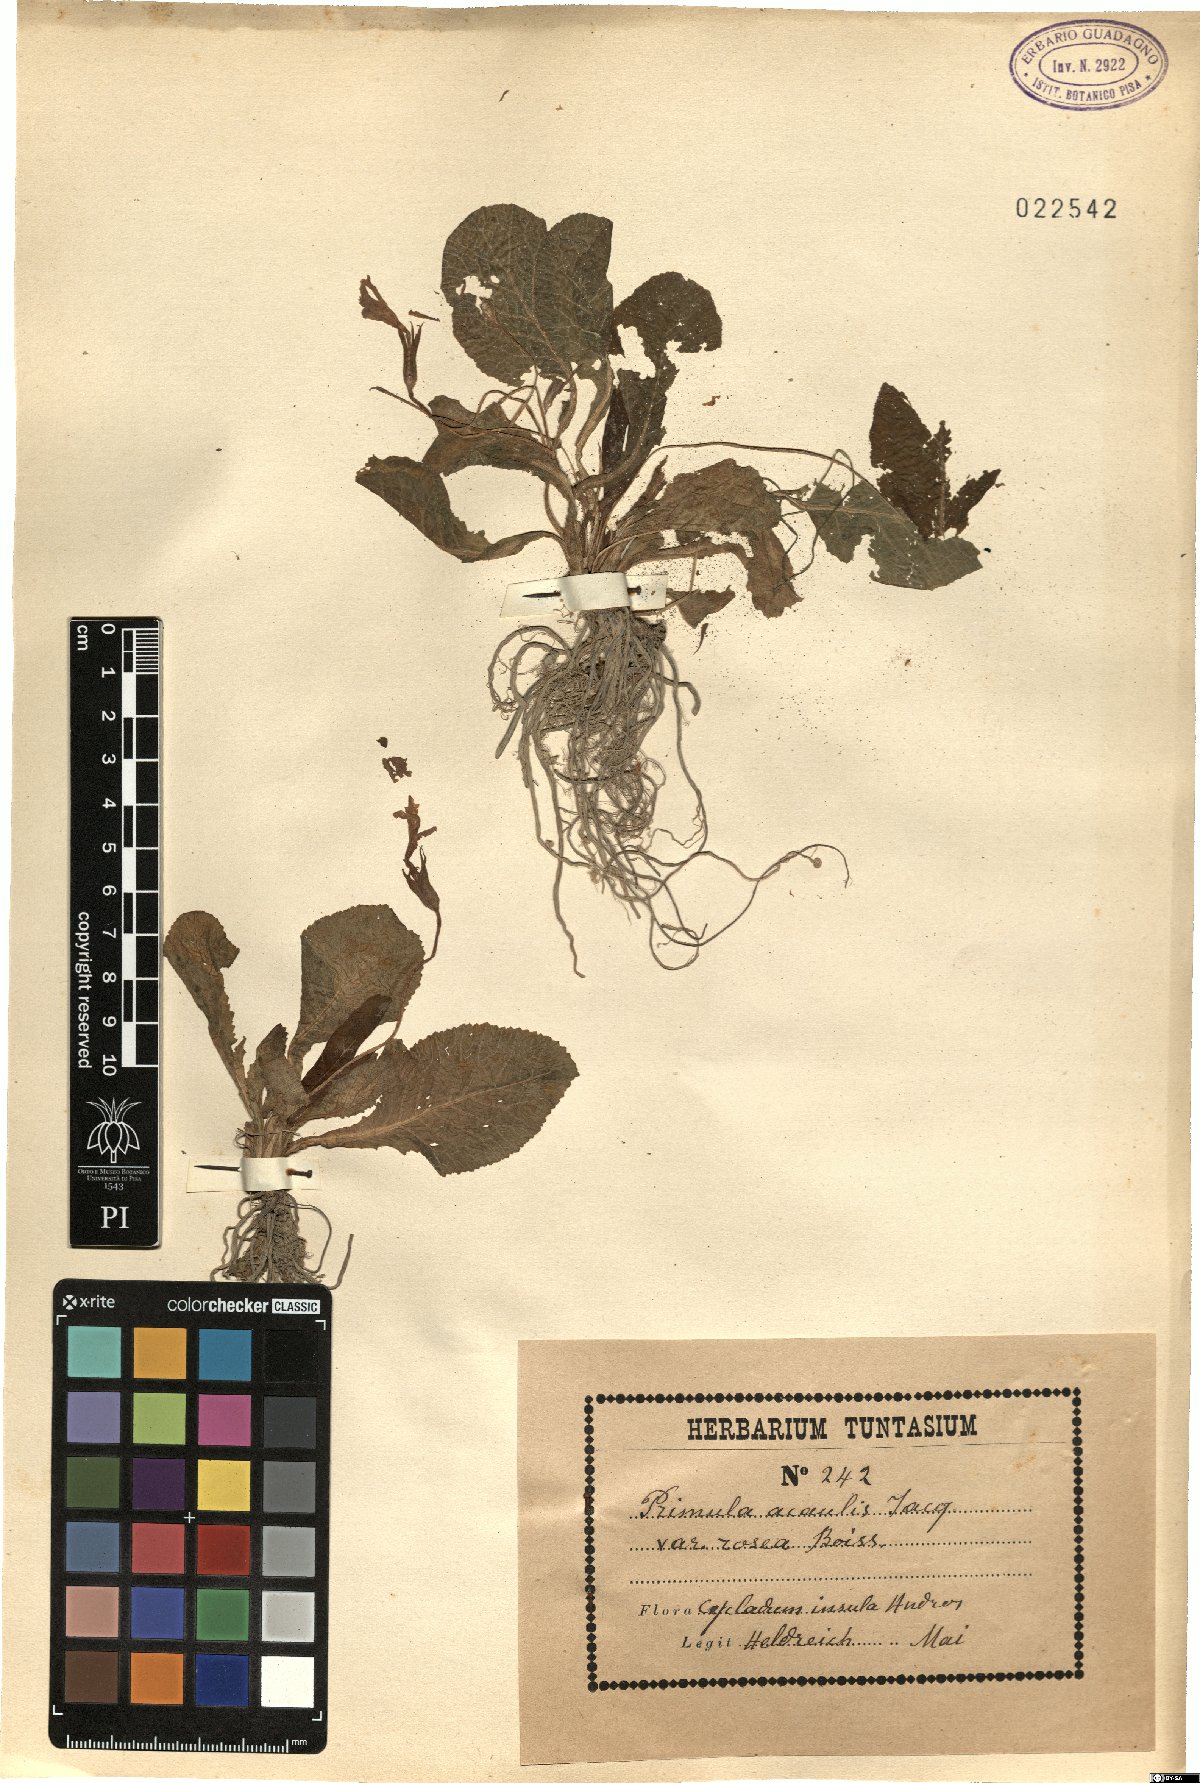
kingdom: Plantae
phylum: Tracheophyta
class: Magnoliopsida
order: Ericales
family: Primulaceae
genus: Primula
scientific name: Primula vulgaris
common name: Primrose
